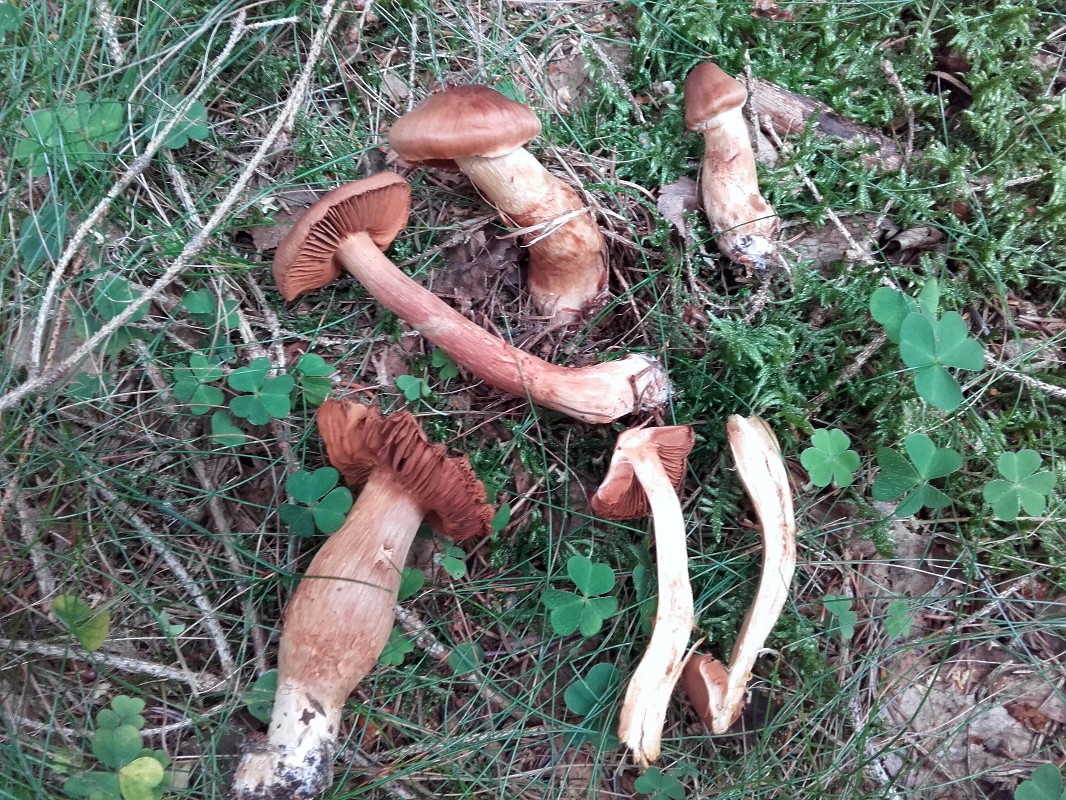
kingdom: Fungi
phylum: Basidiomycota
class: Agaricomycetes
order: Agaricales
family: Cortinariaceae
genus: Cortinarius
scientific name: Cortinarius rubellus
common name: puklet gift-slørhat
